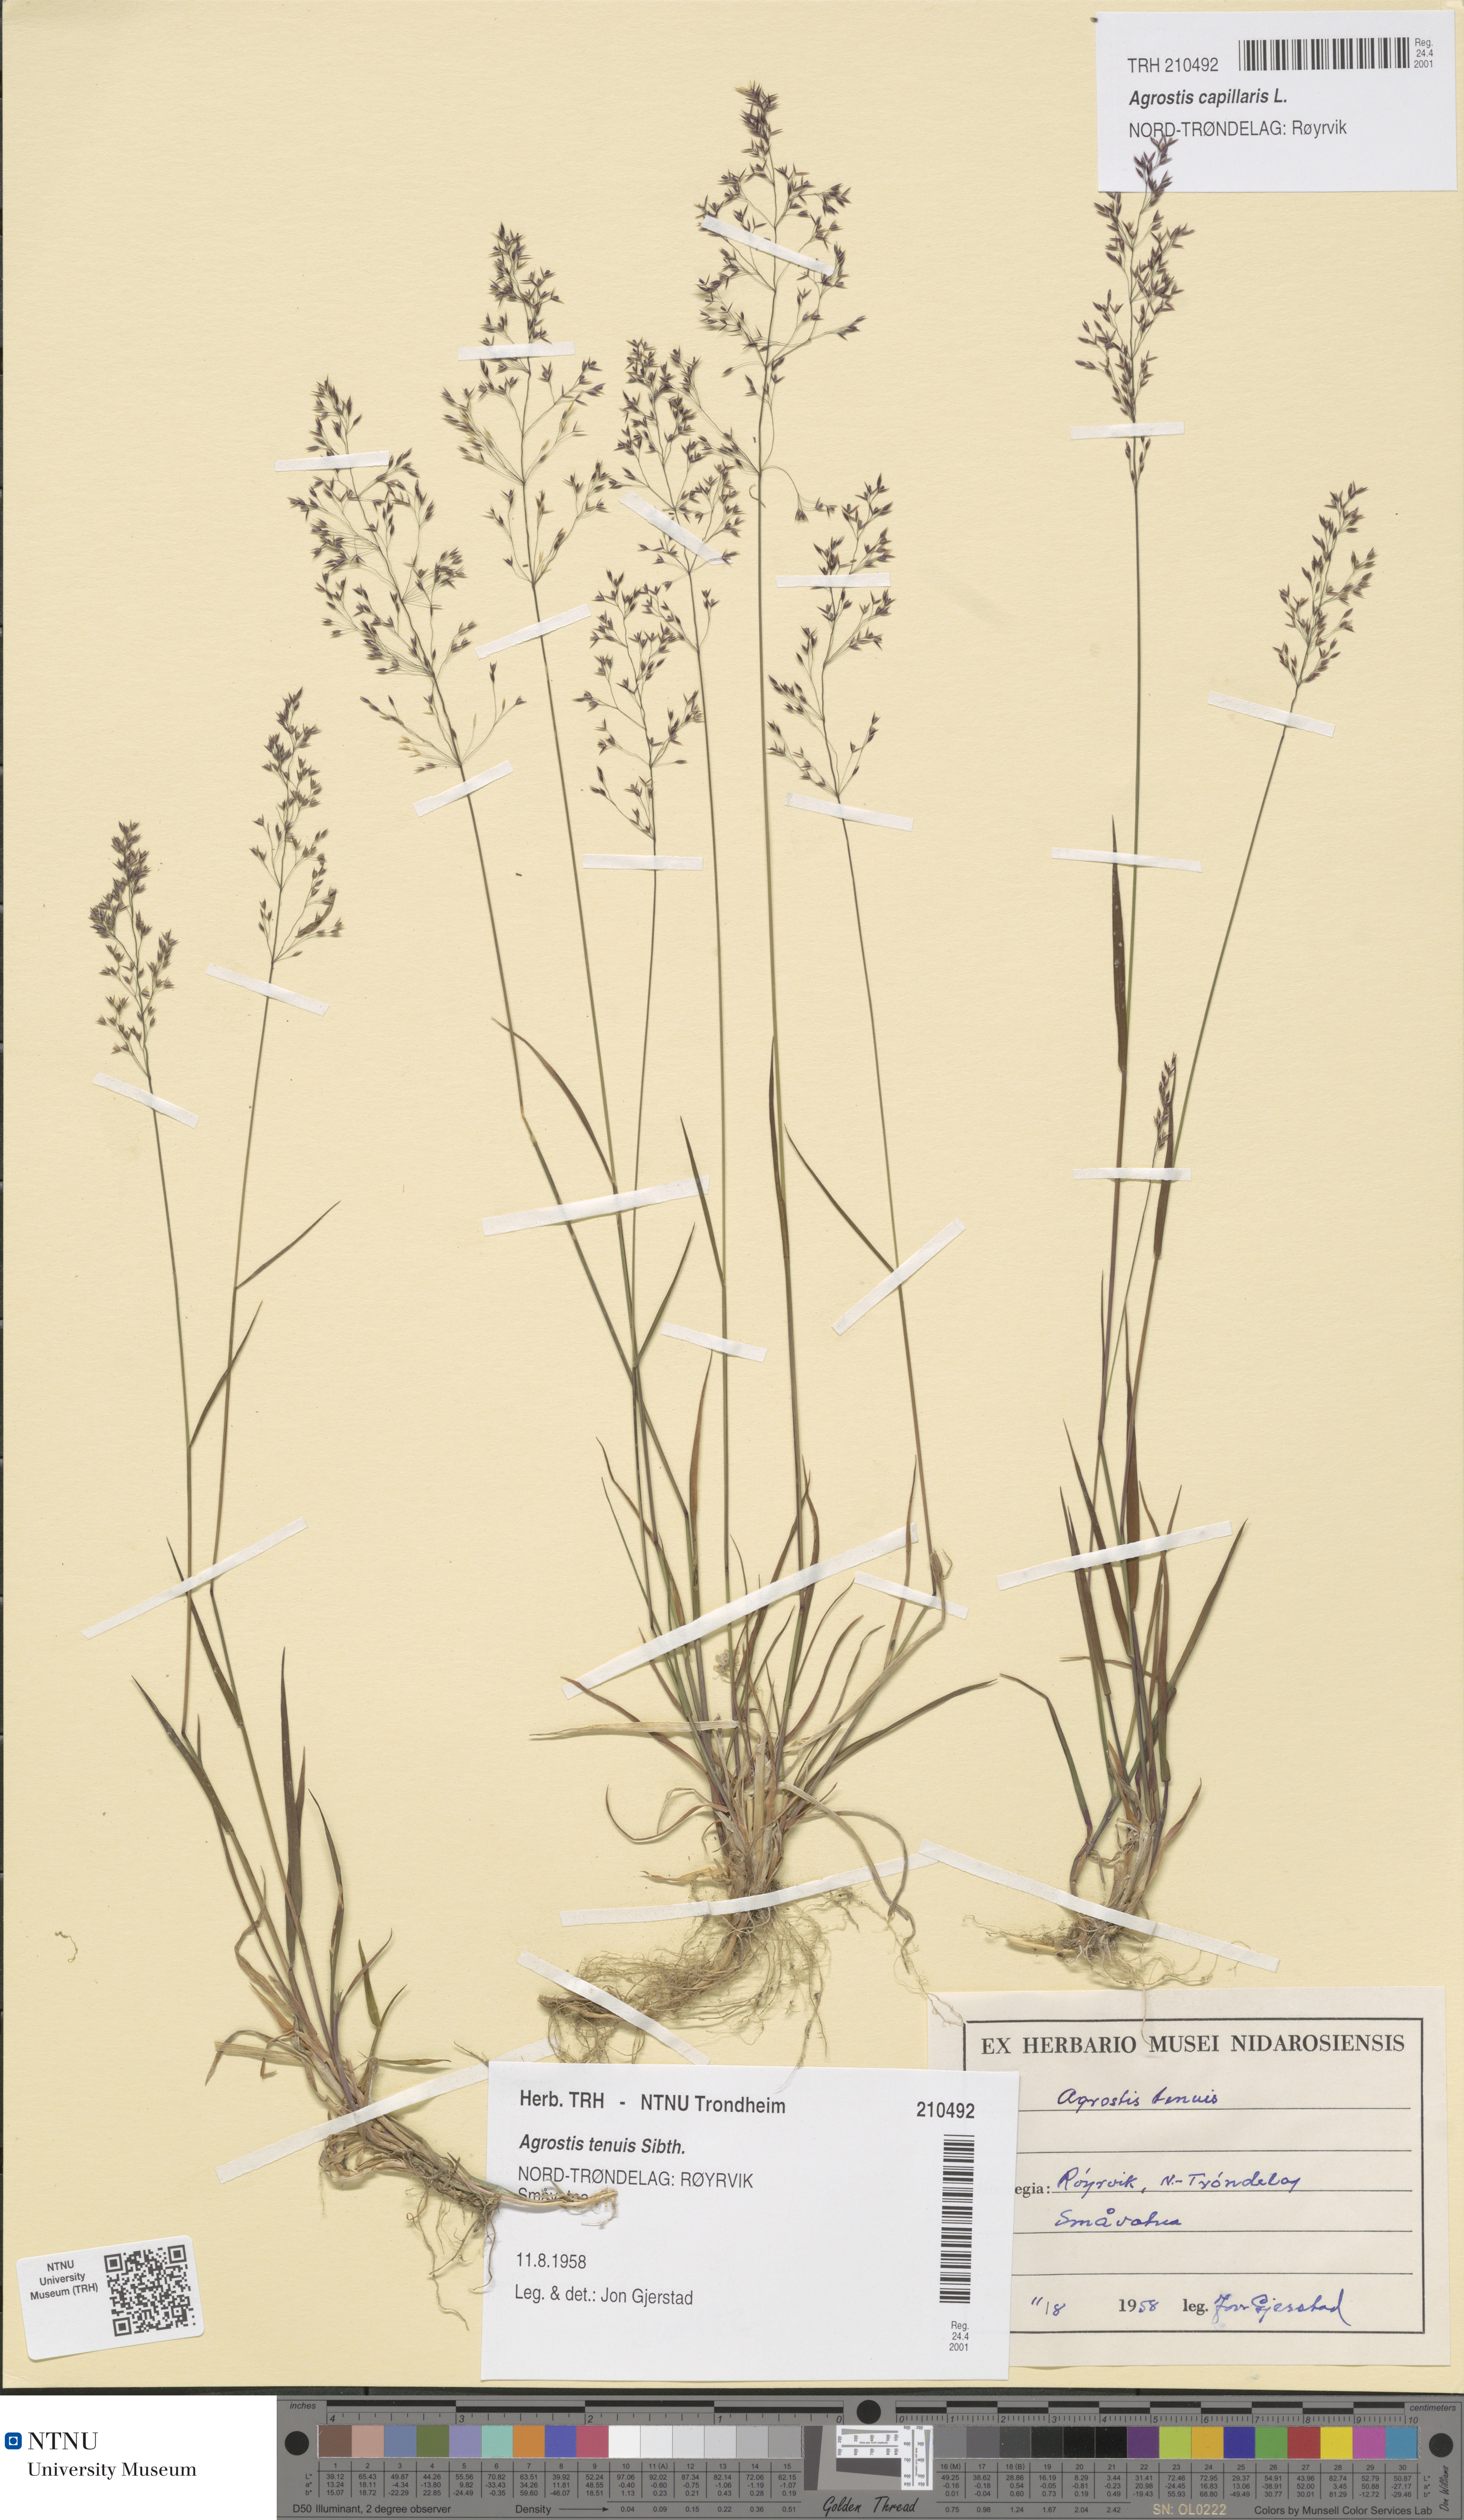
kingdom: Plantae
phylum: Tracheophyta
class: Liliopsida
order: Poales
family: Poaceae
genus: Agrostis
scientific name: Agrostis capillaris
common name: Colonial bentgrass
